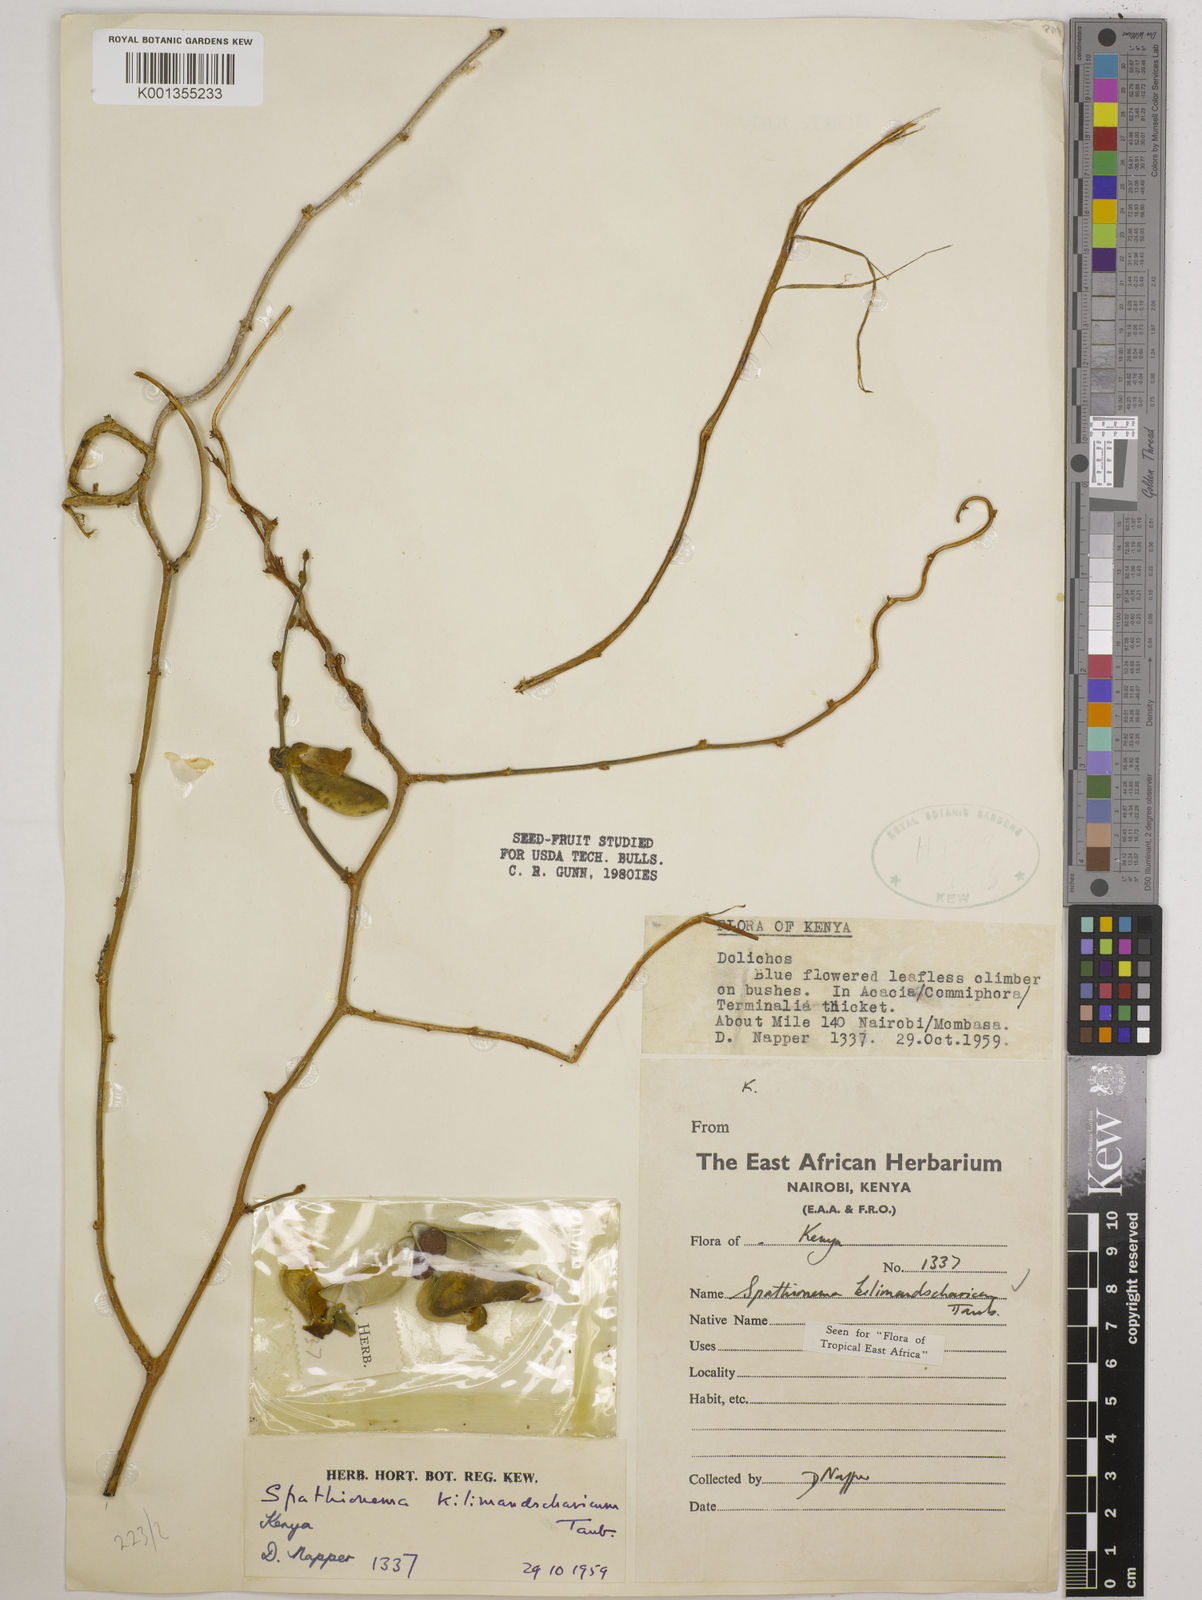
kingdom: Plantae
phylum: Tracheophyta
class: Magnoliopsida
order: Fabales
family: Fabaceae
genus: Spathionema
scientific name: Spathionema kilimandscharicum
